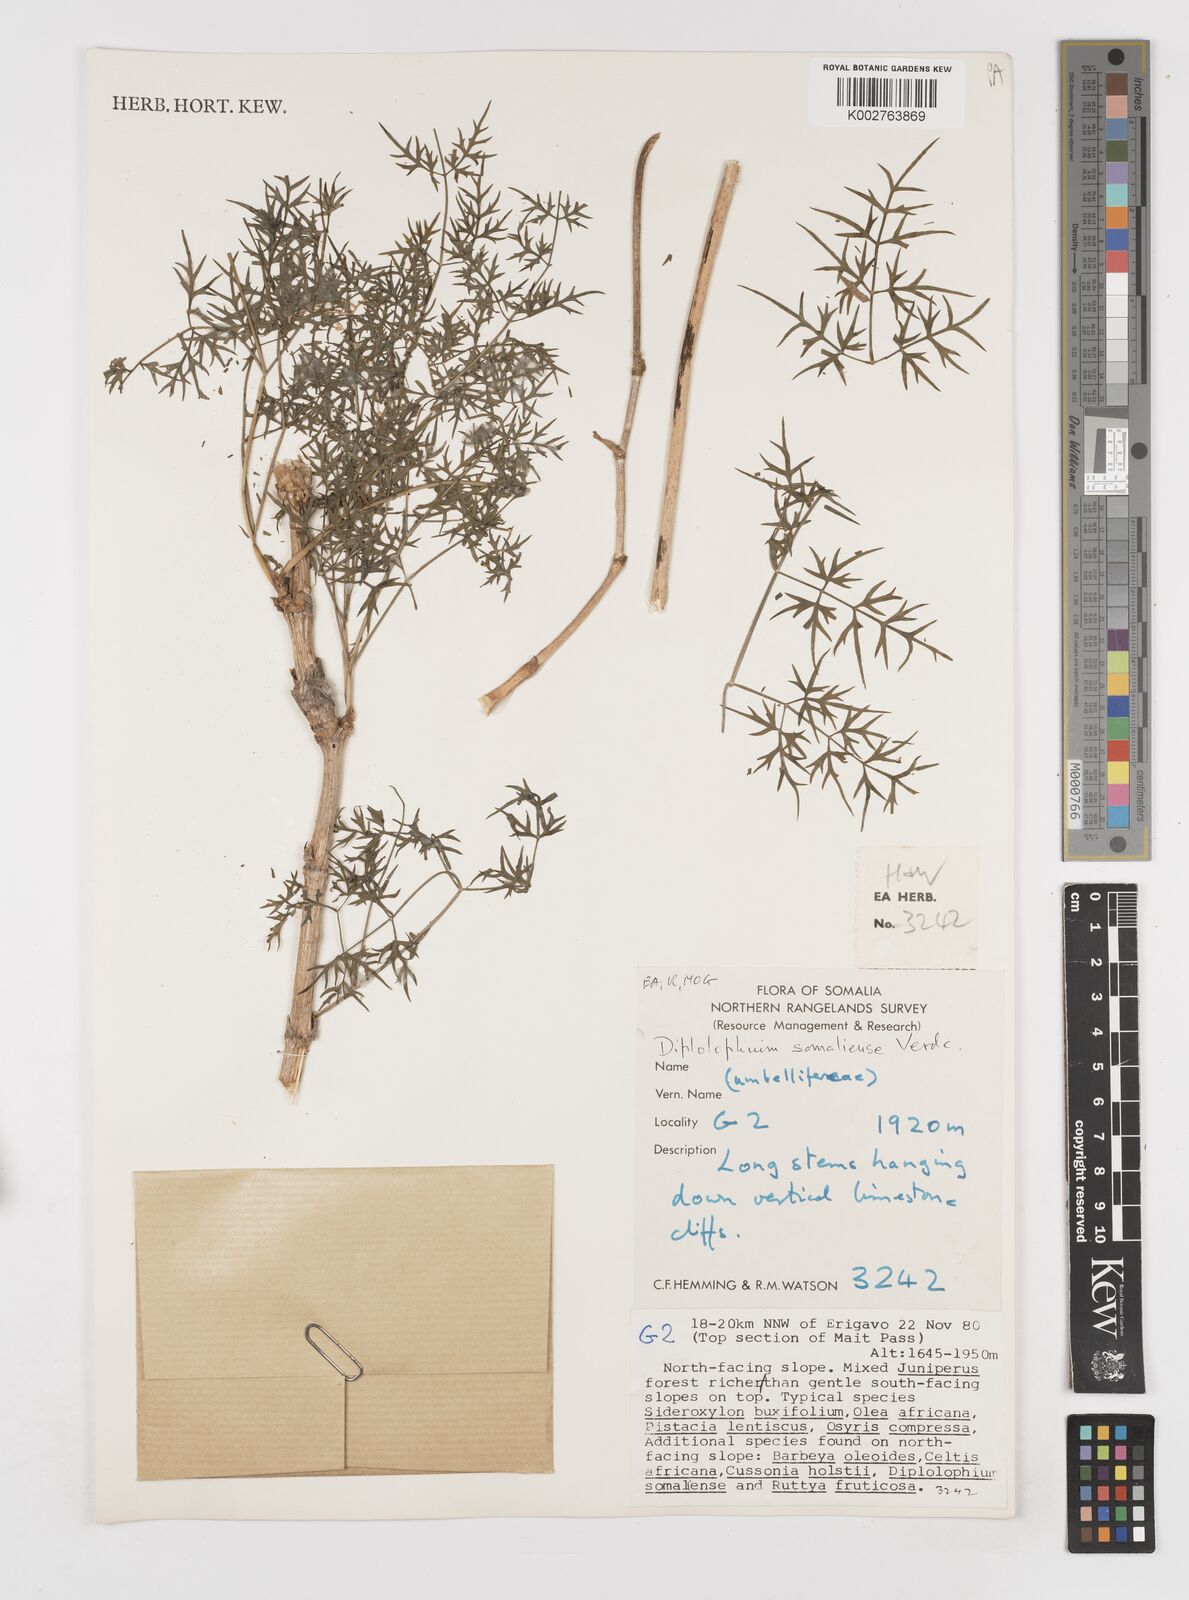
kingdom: Plantae
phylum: Tracheophyta
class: Magnoliopsida
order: Apiales
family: Apiaceae
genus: Diplolophium
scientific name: Diplolophium somaliense
